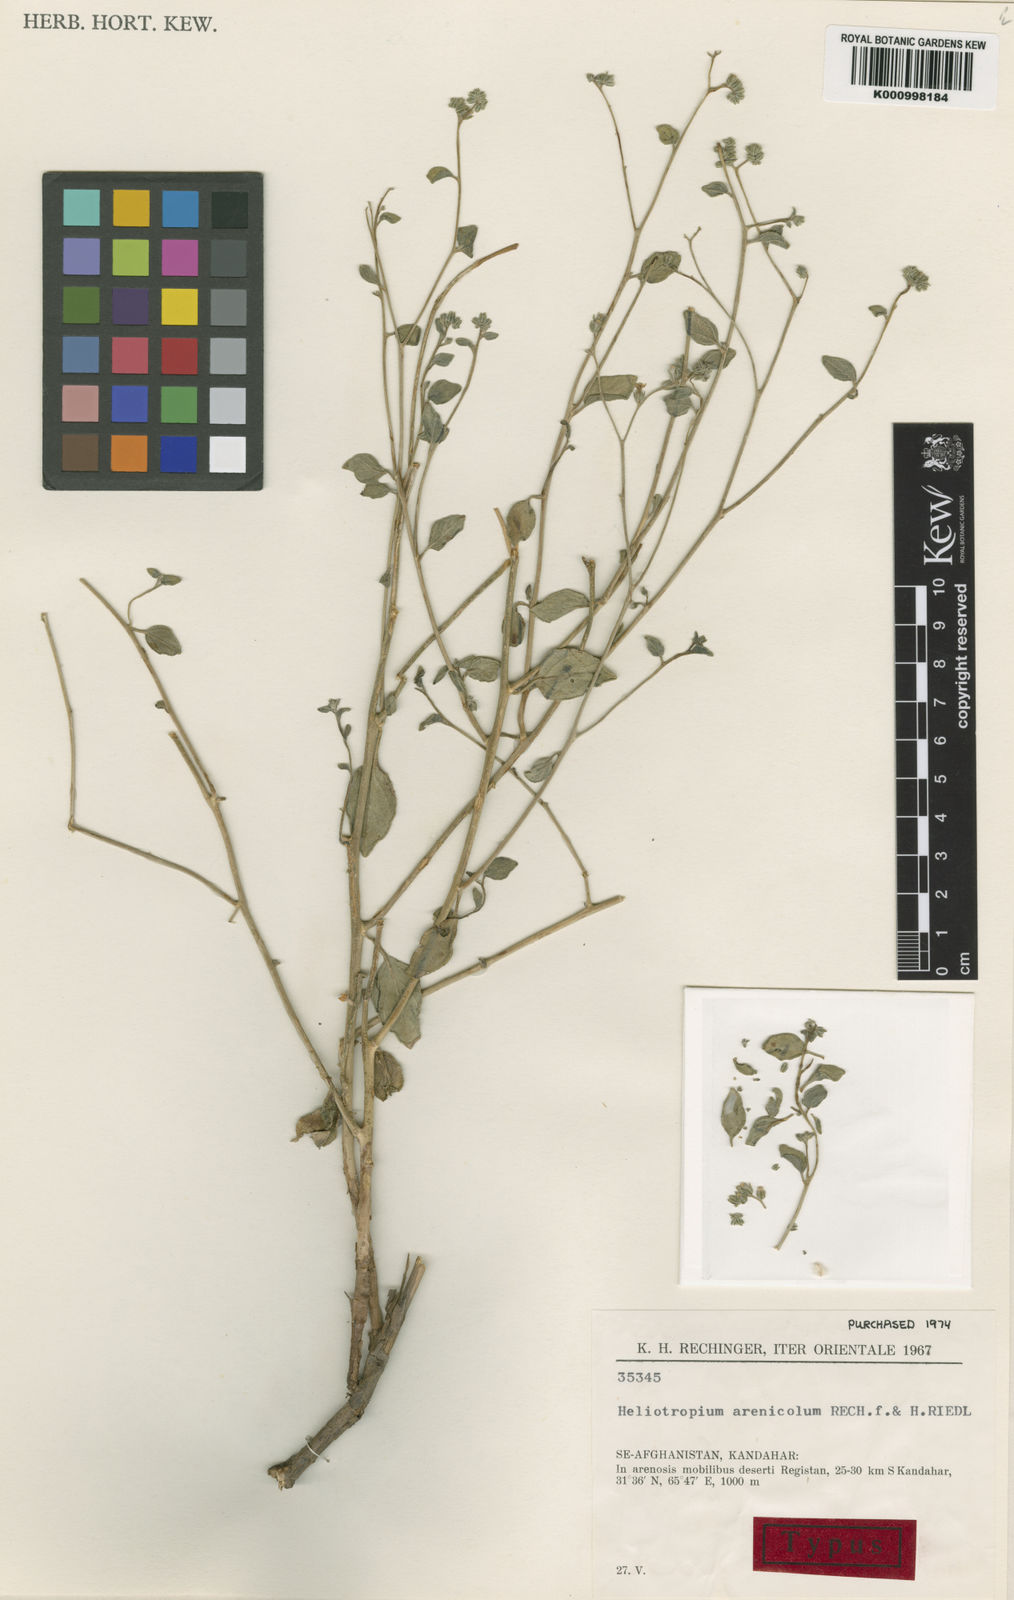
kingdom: Plantae
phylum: Tracheophyta
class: Magnoliopsida
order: Boraginales
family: Heliotropiaceae
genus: Heliotropium
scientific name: Heliotropium dasycarpum
